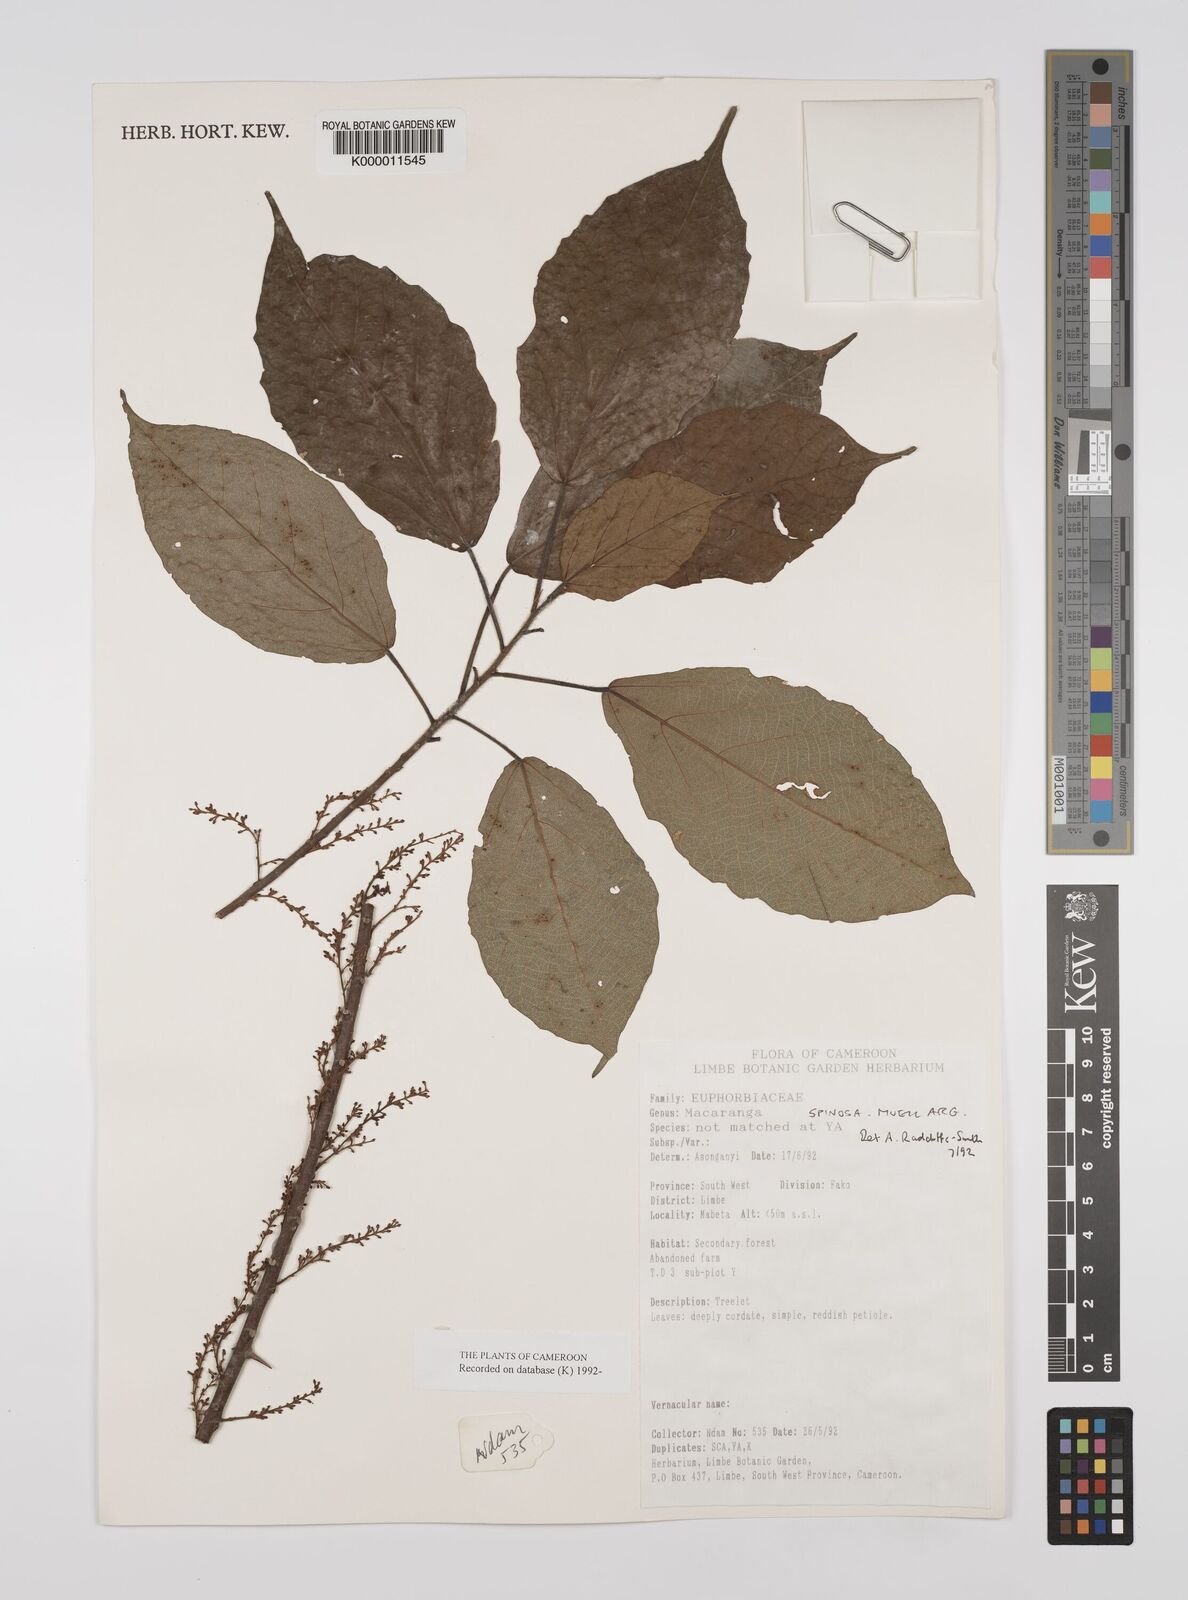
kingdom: Plantae
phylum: Tracheophyta
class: Magnoliopsida
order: Malpighiales
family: Euphorbiaceae
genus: Macaranga
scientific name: Macaranga
